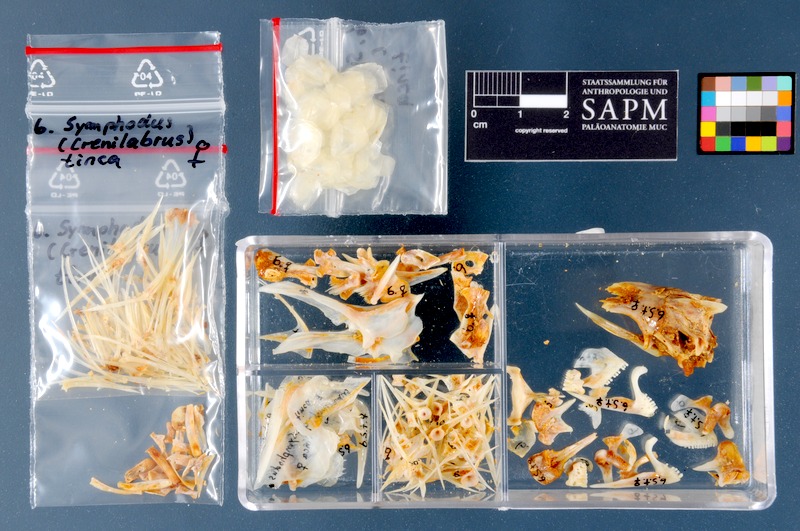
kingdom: Animalia
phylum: Chordata
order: Perciformes
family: Labridae
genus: Symphodus
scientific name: Symphodus tinca
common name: Peacock wrasse
